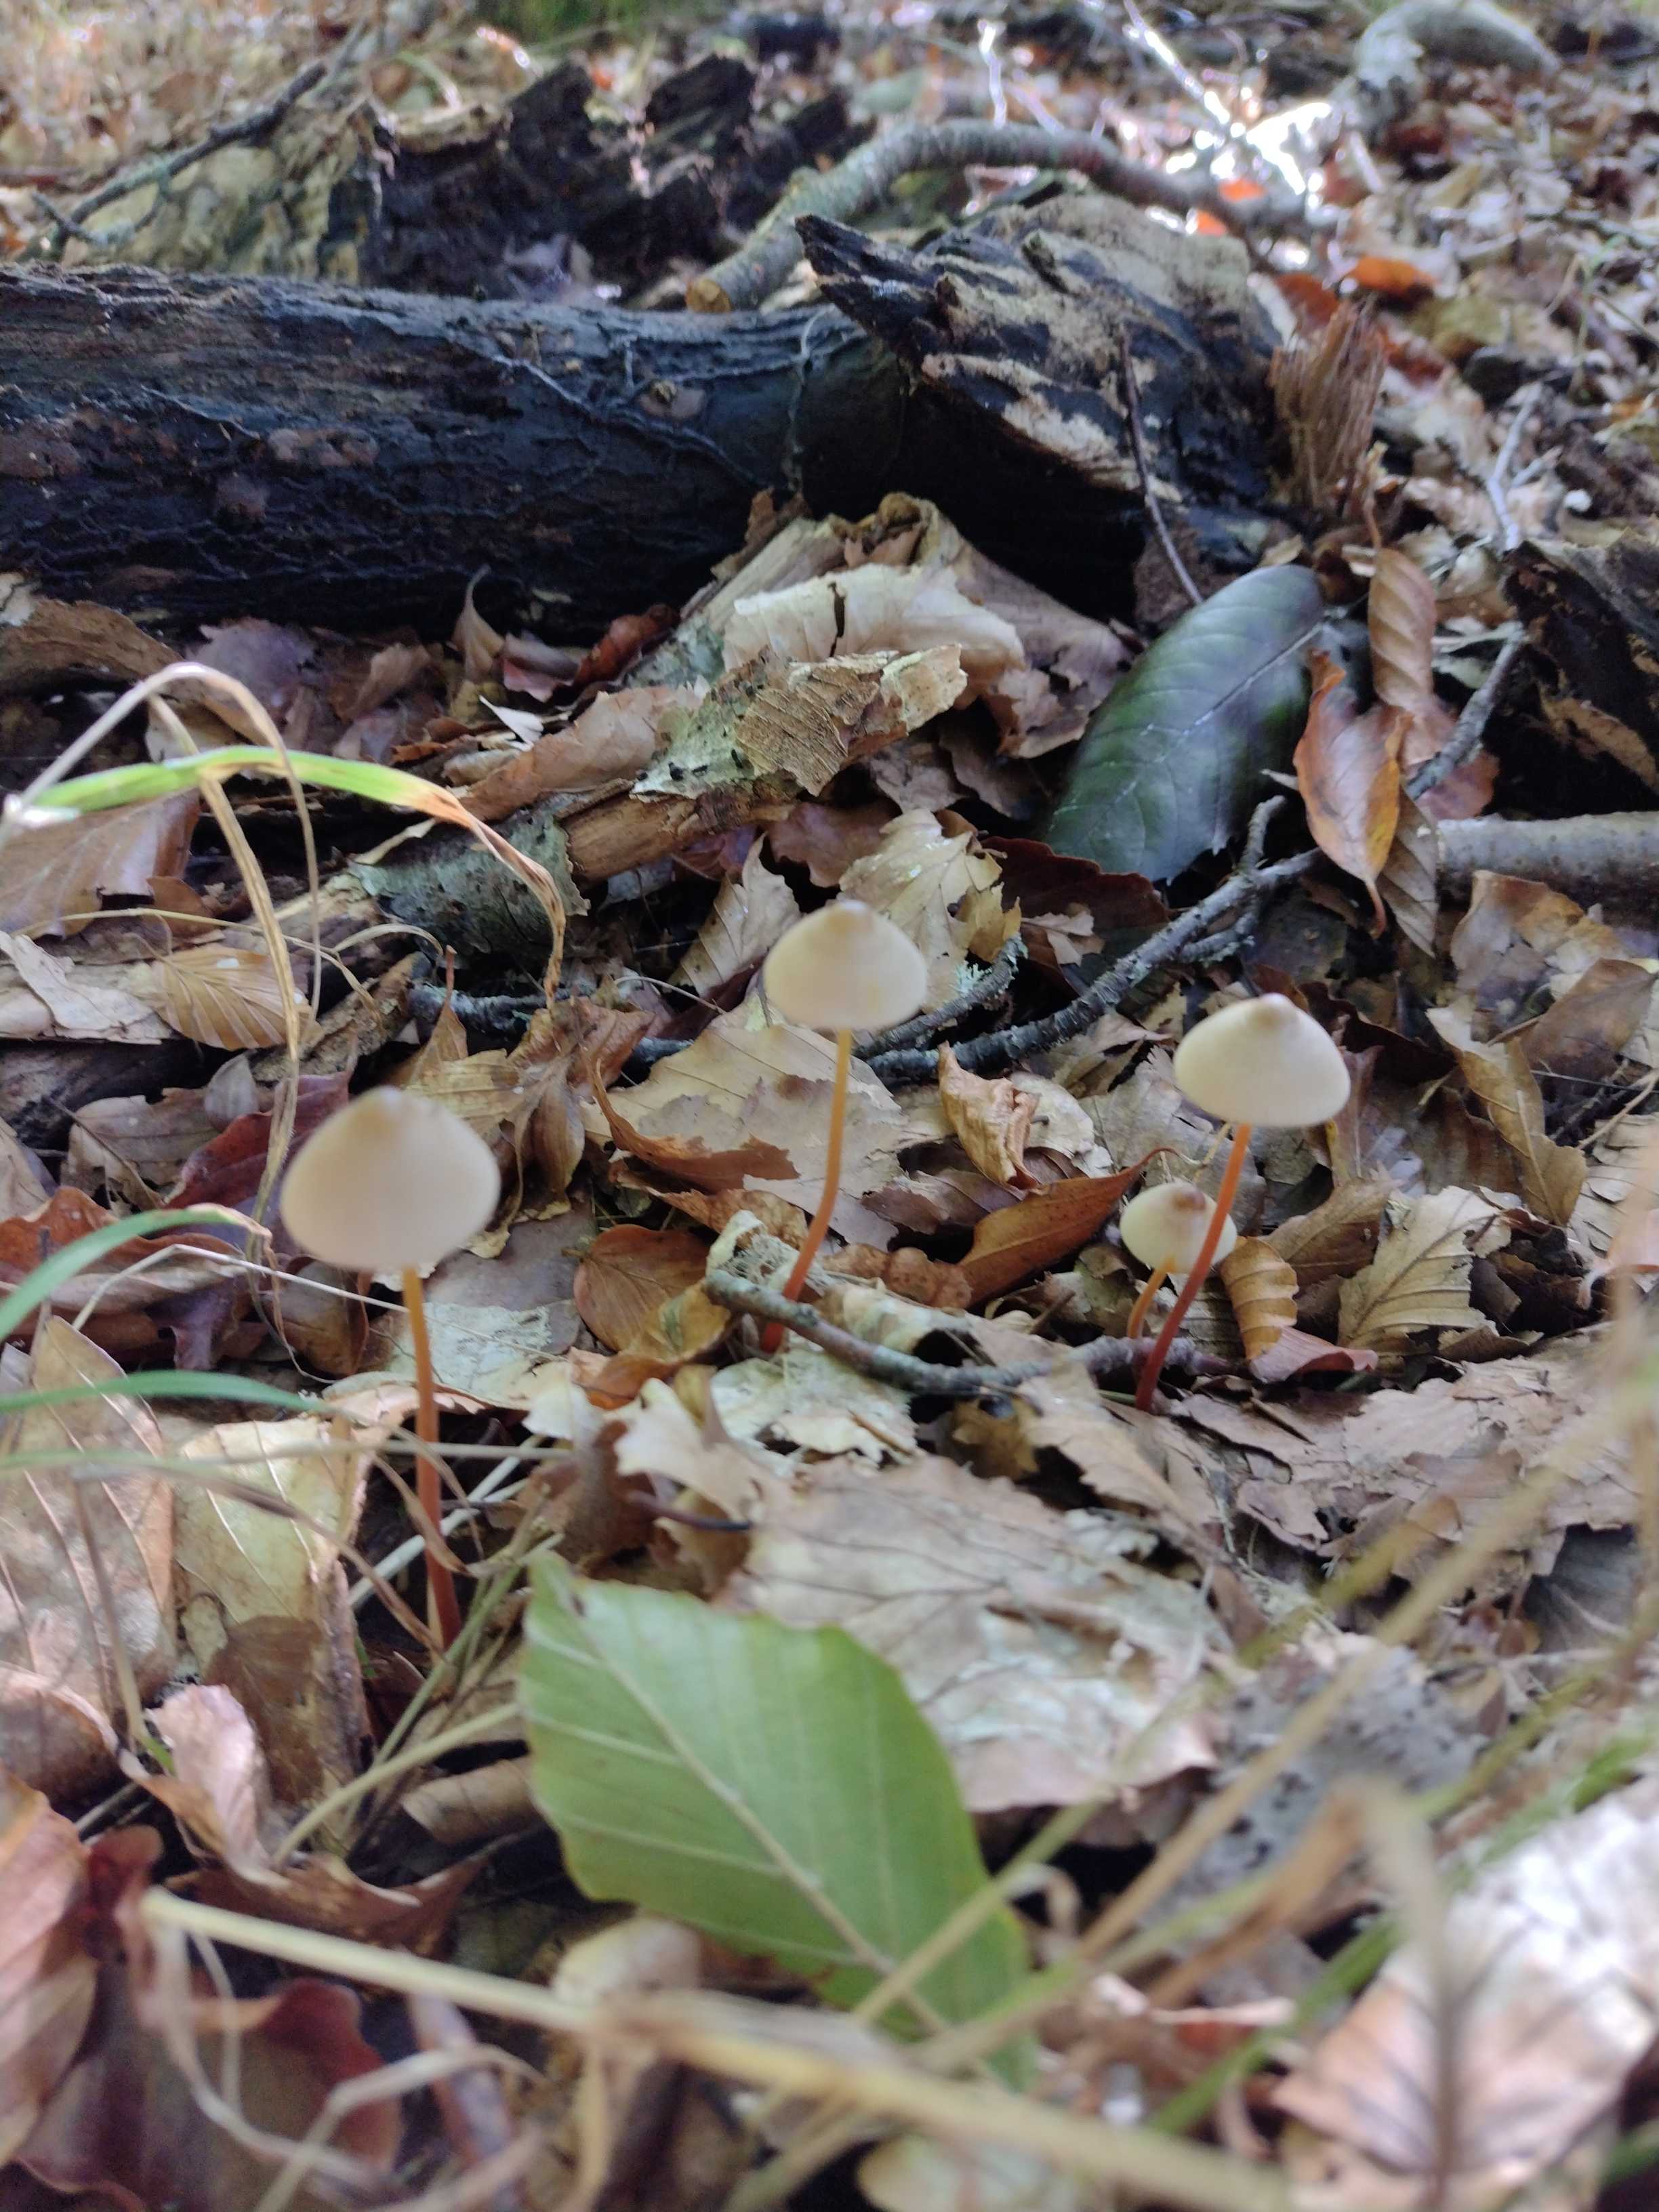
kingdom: Fungi
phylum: Basidiomycota
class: Agaricomycetes
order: Agaricales
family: Mycenaceae
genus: Mycena
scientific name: Mycena crocata
